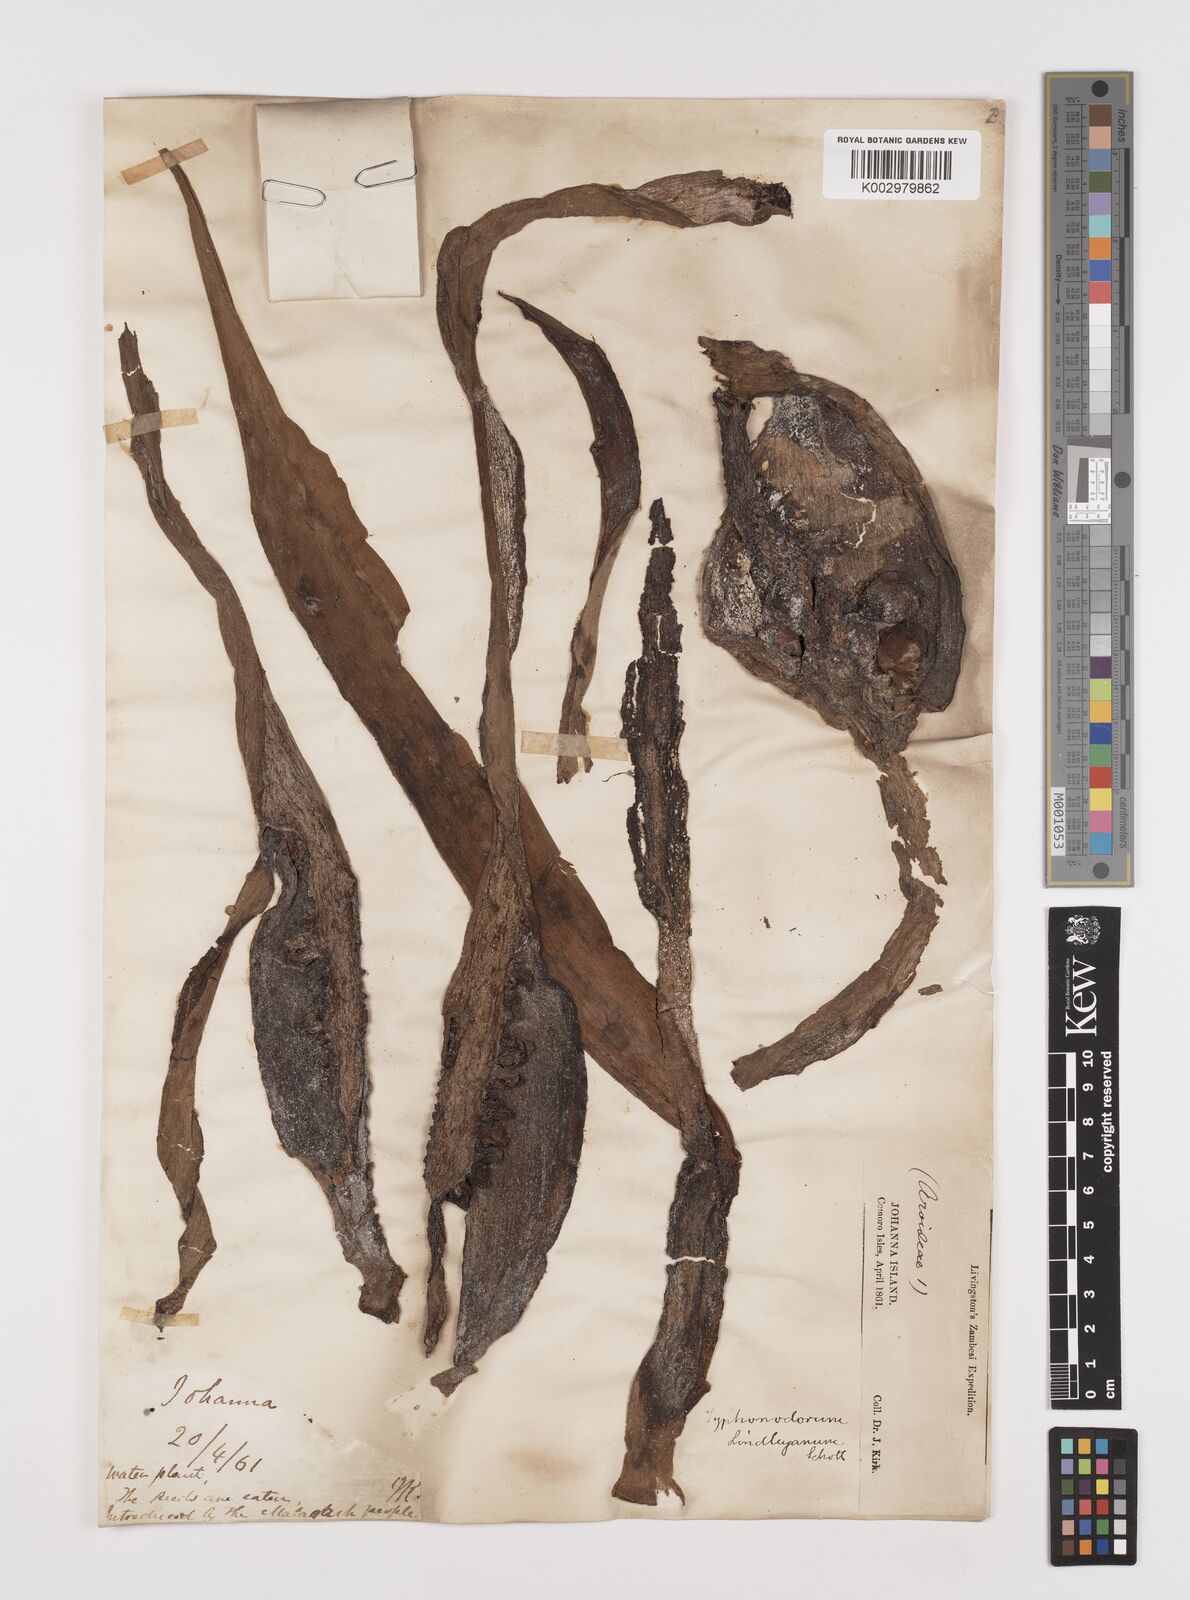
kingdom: Plantae
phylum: Tracheophyta
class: Liliopsida
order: Alismatales
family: Araceae
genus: Typhonodorum
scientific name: Typhonodorum lindleyanum
